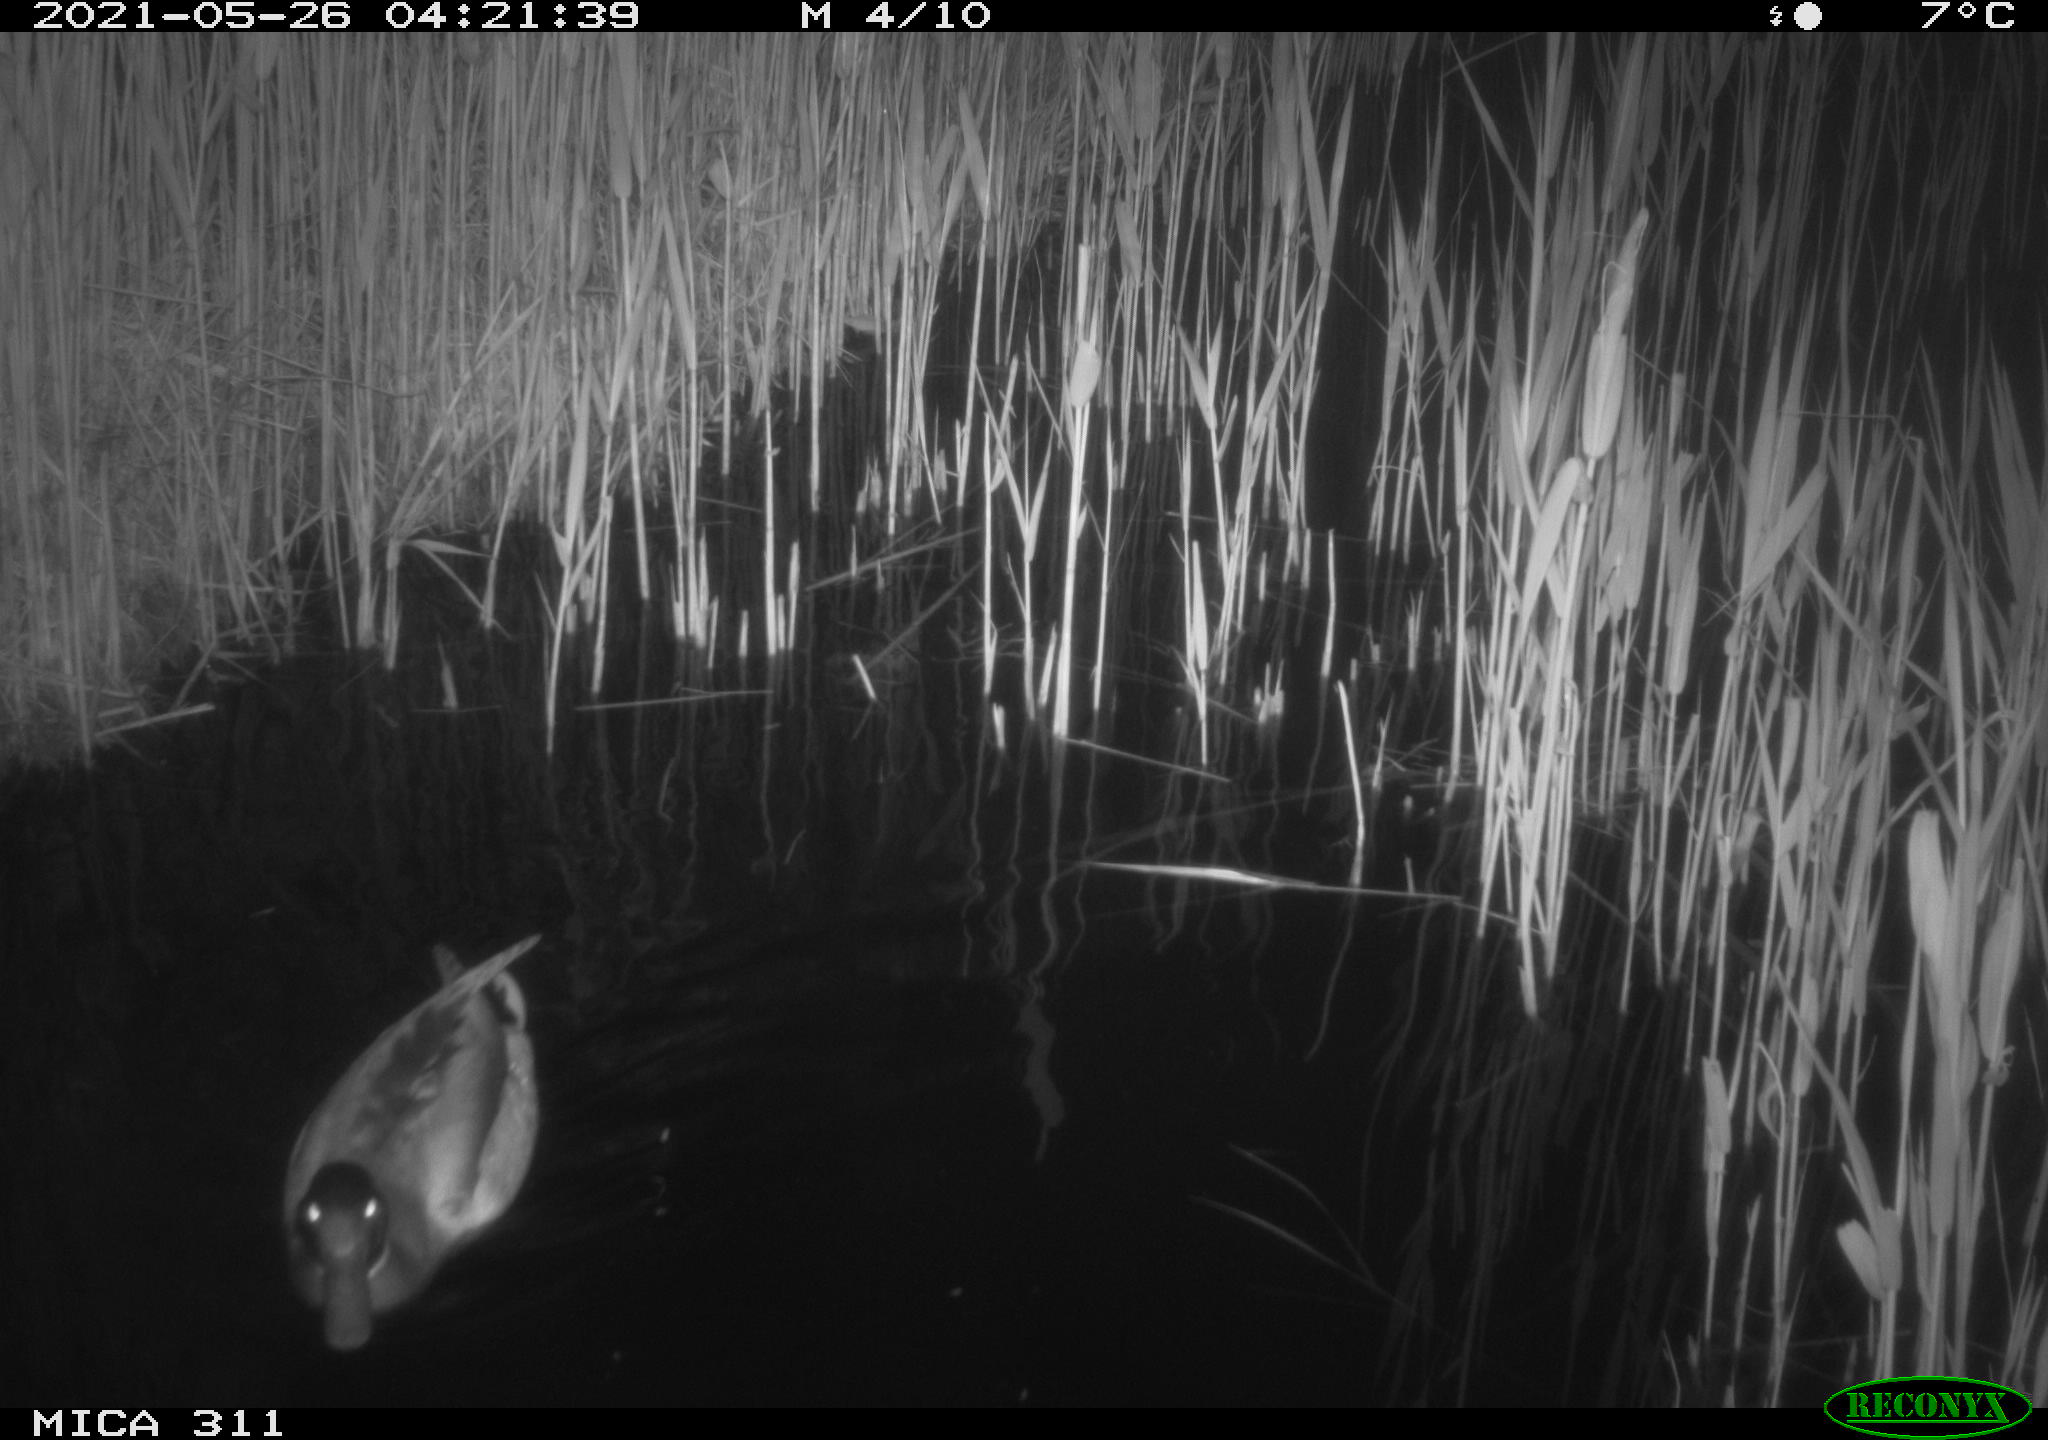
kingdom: Animalia
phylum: Chordata
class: Aves
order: Anseriformes
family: Anatidae
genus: Anas
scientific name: Anas
